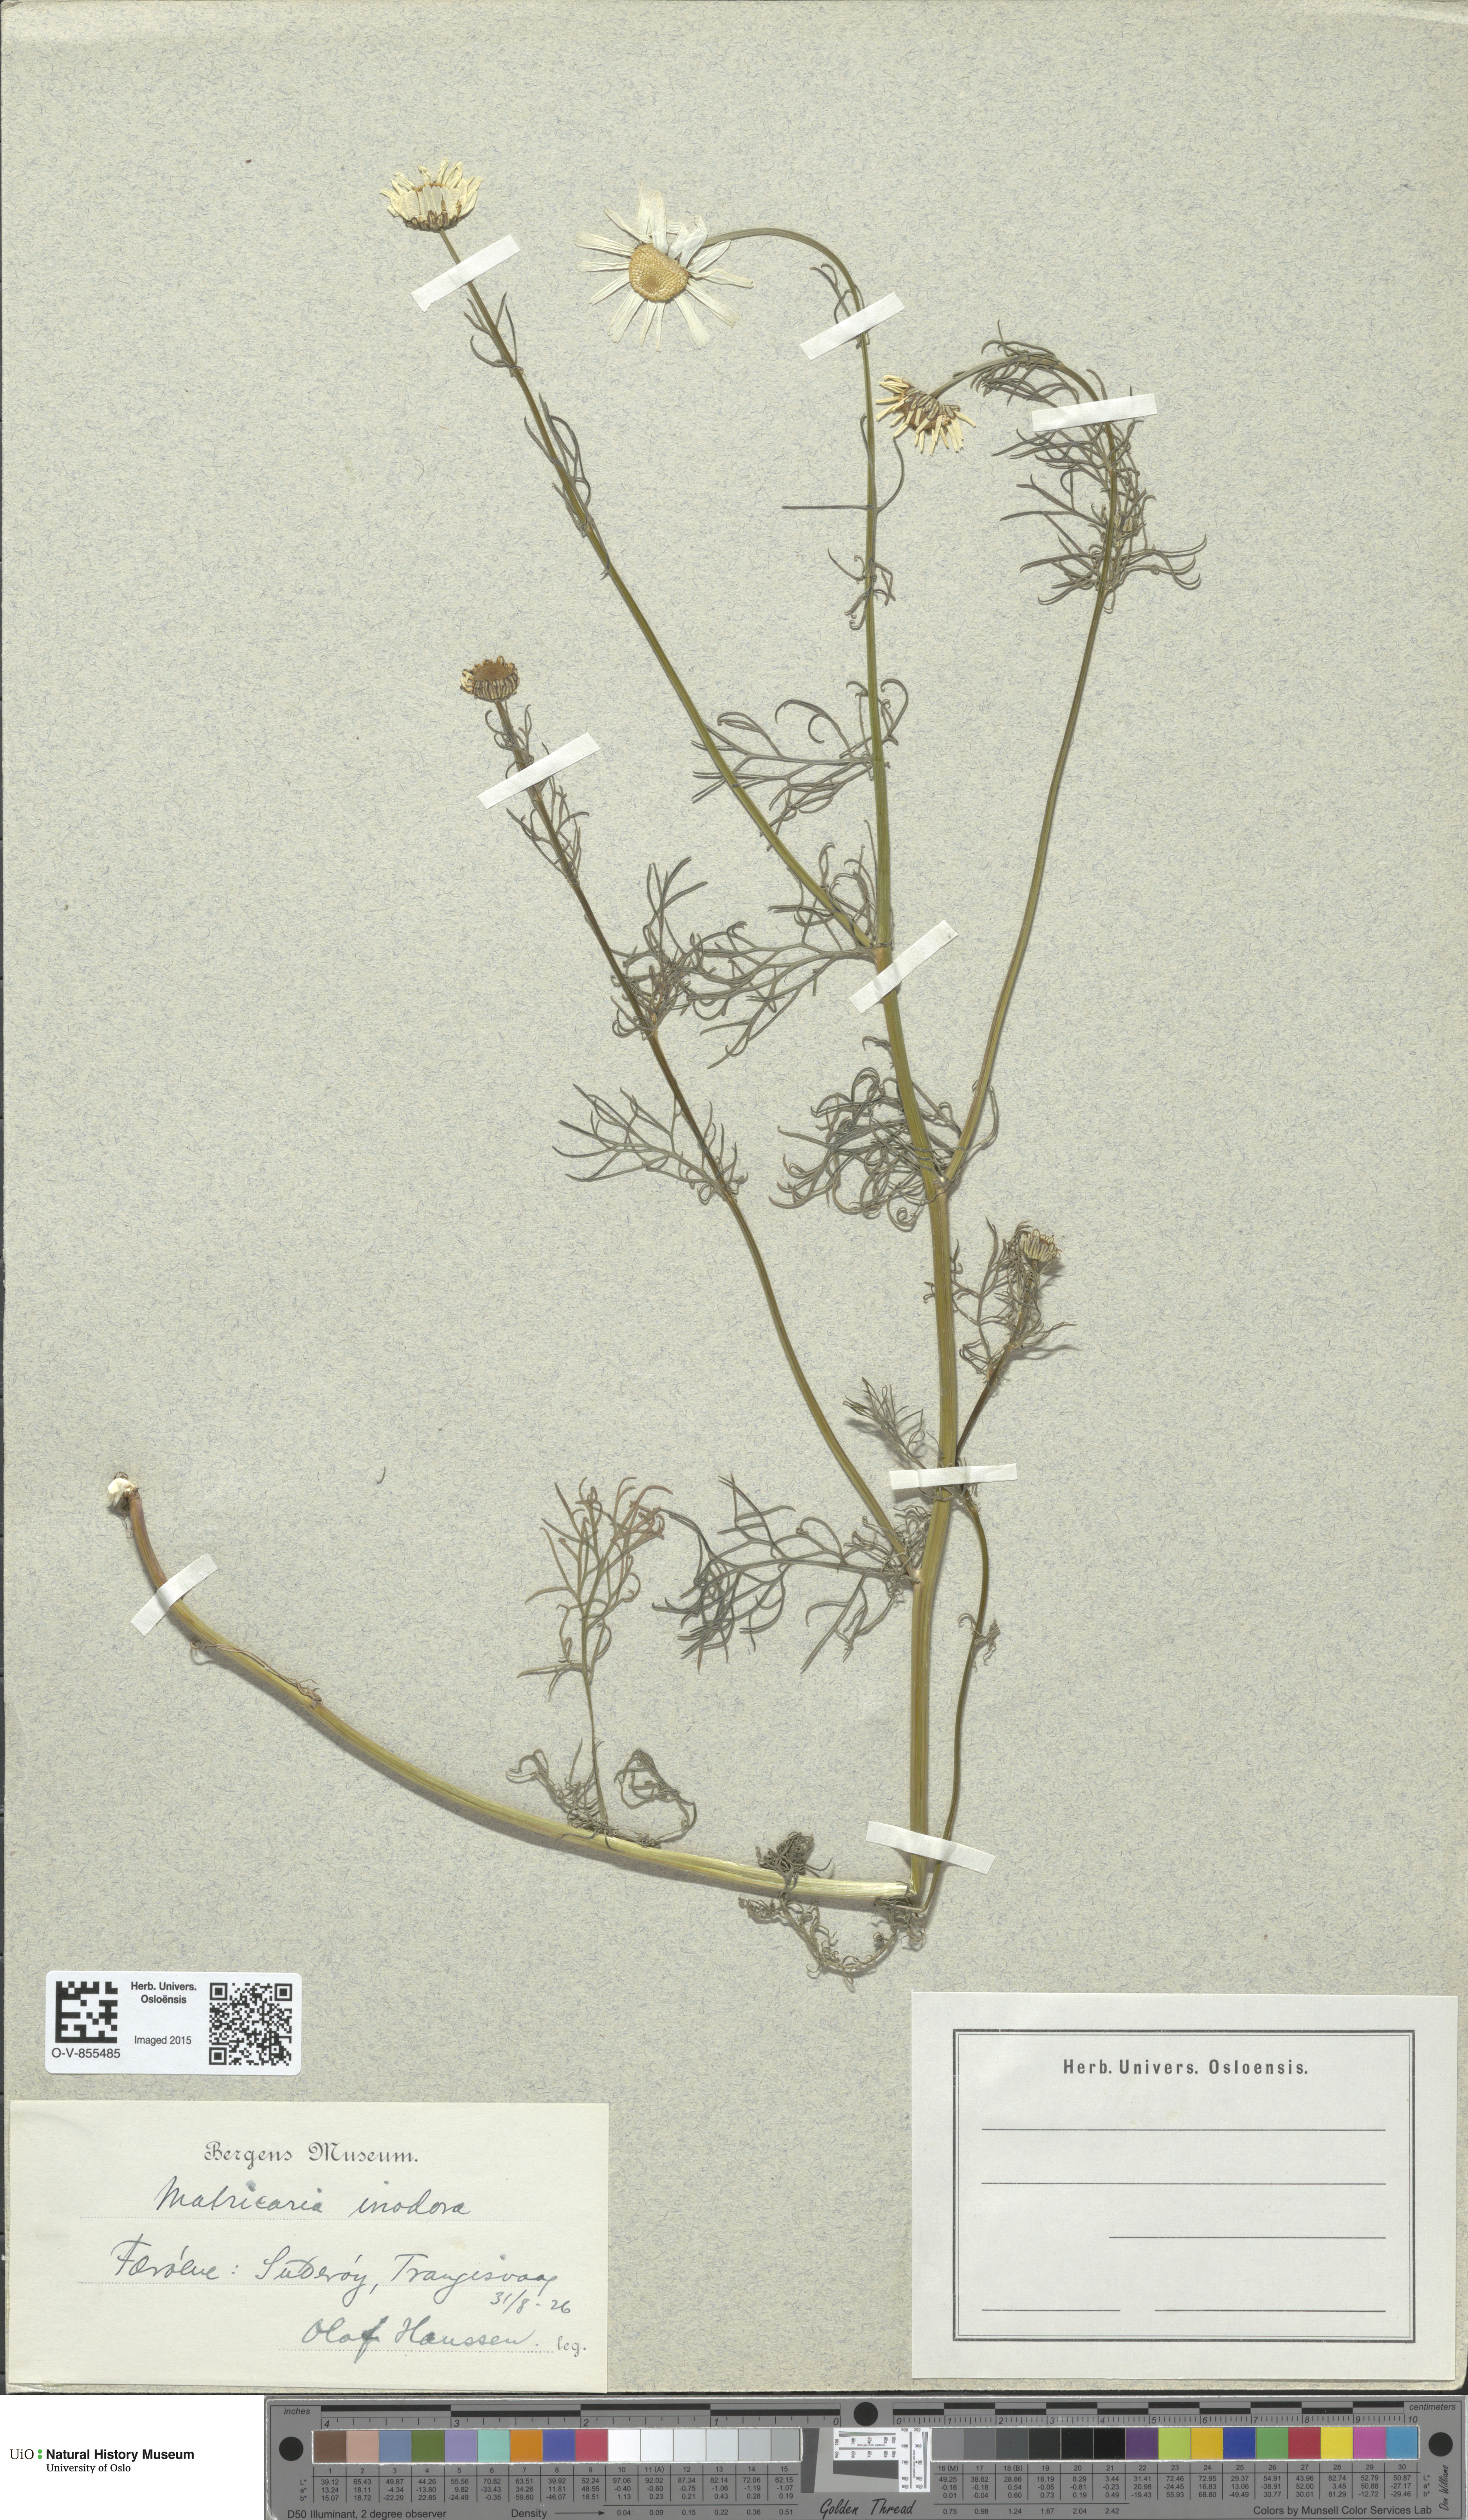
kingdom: Plantae
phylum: Tracheophyta
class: Magnoliopsida
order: Asterales
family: Asteraceae
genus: Tripleurospermum
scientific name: Tripleurospermum inodorum
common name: Scentless mayweed
